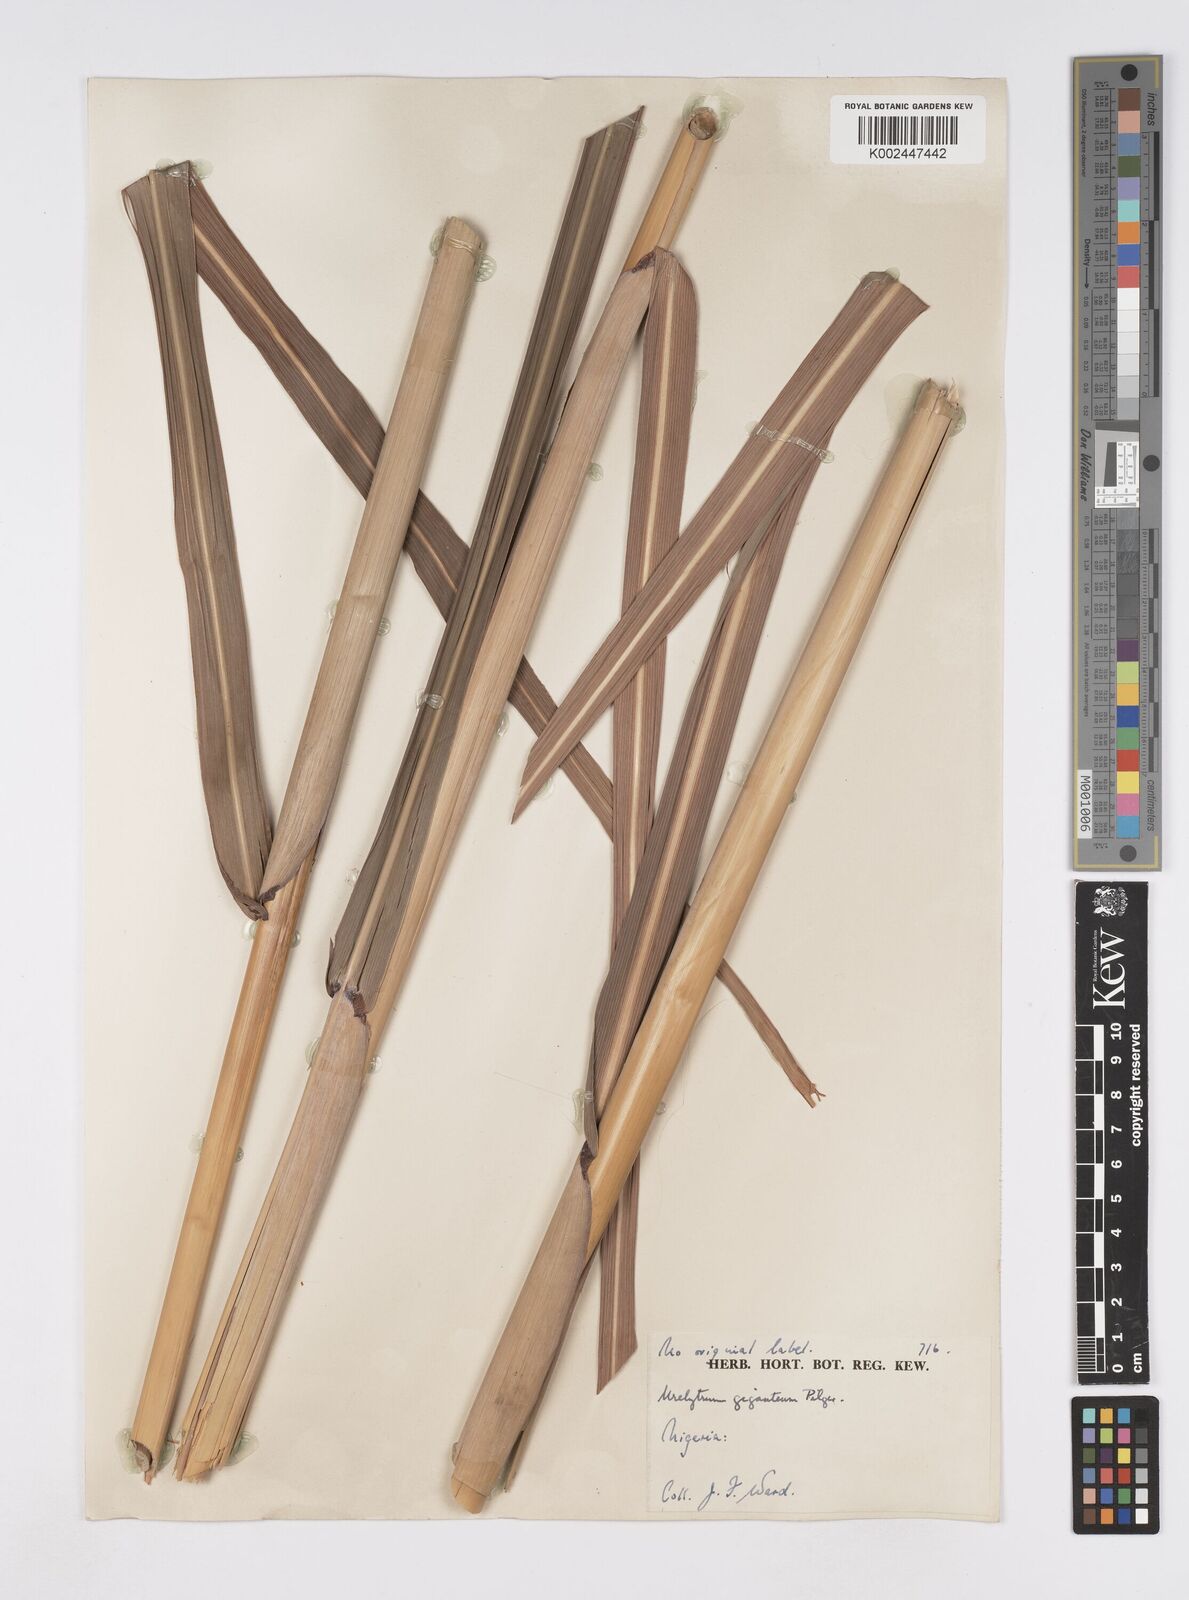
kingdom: Plantae
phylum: Tracheophyta
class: Liliopsida
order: Poales
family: Poaceae
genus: Urelytrum
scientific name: Urelytrum giganteum
